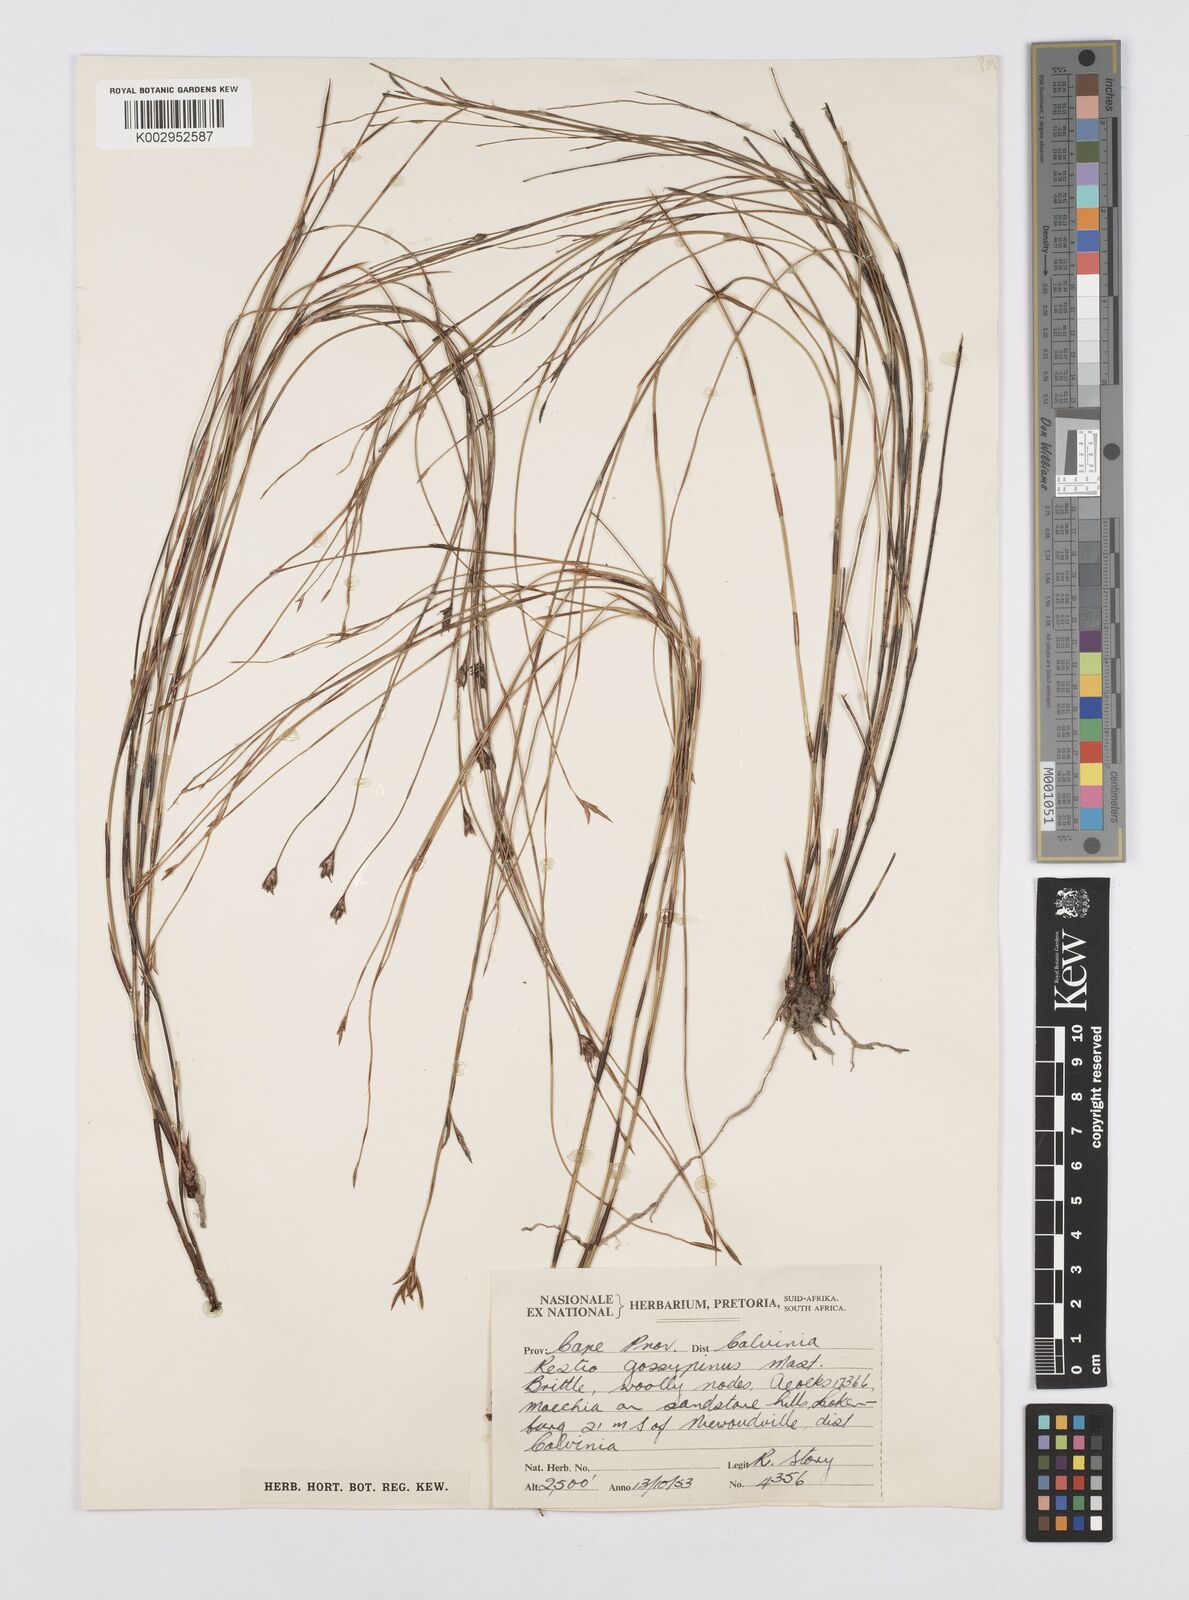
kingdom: Plantae
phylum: Tracheophyta
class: Liliopsida
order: Poales
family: Restionaceae
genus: Restio
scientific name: Restio gossypinus
